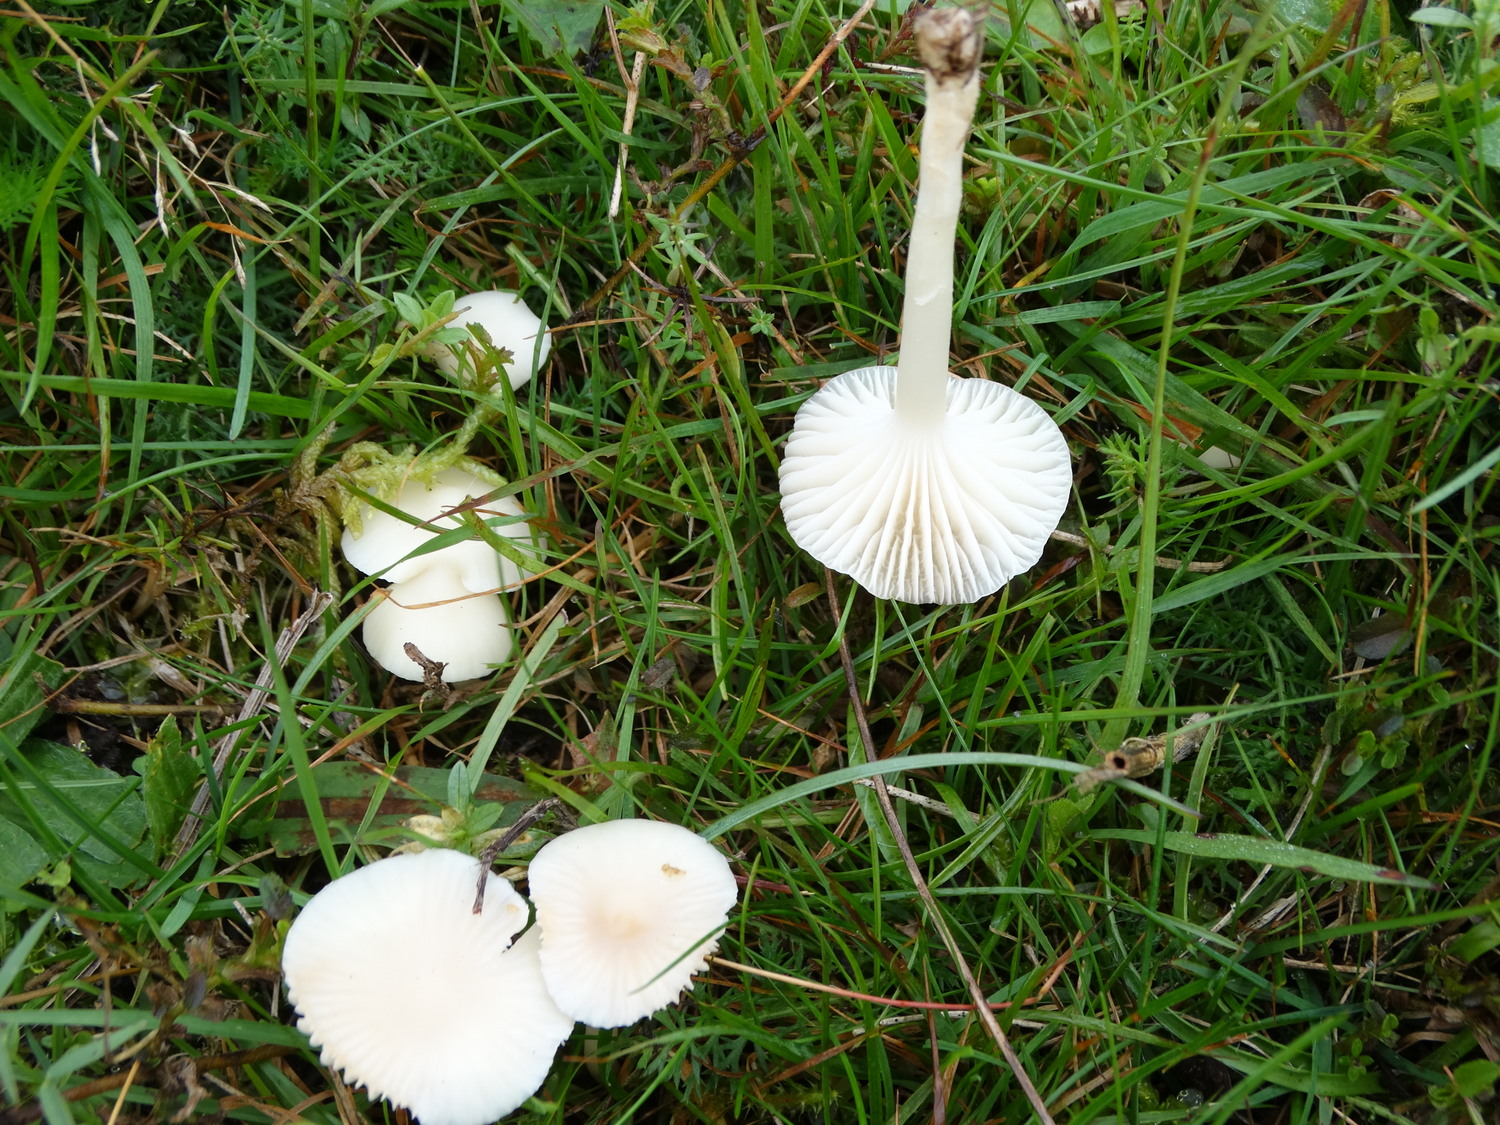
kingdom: Fungi
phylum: Basidiomycota
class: Agaricomycetes
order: Agaricales
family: Hygrophoraceae
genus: Cuphophyllus
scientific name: Cuphophyllus virgineus
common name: snehvid vokshat
